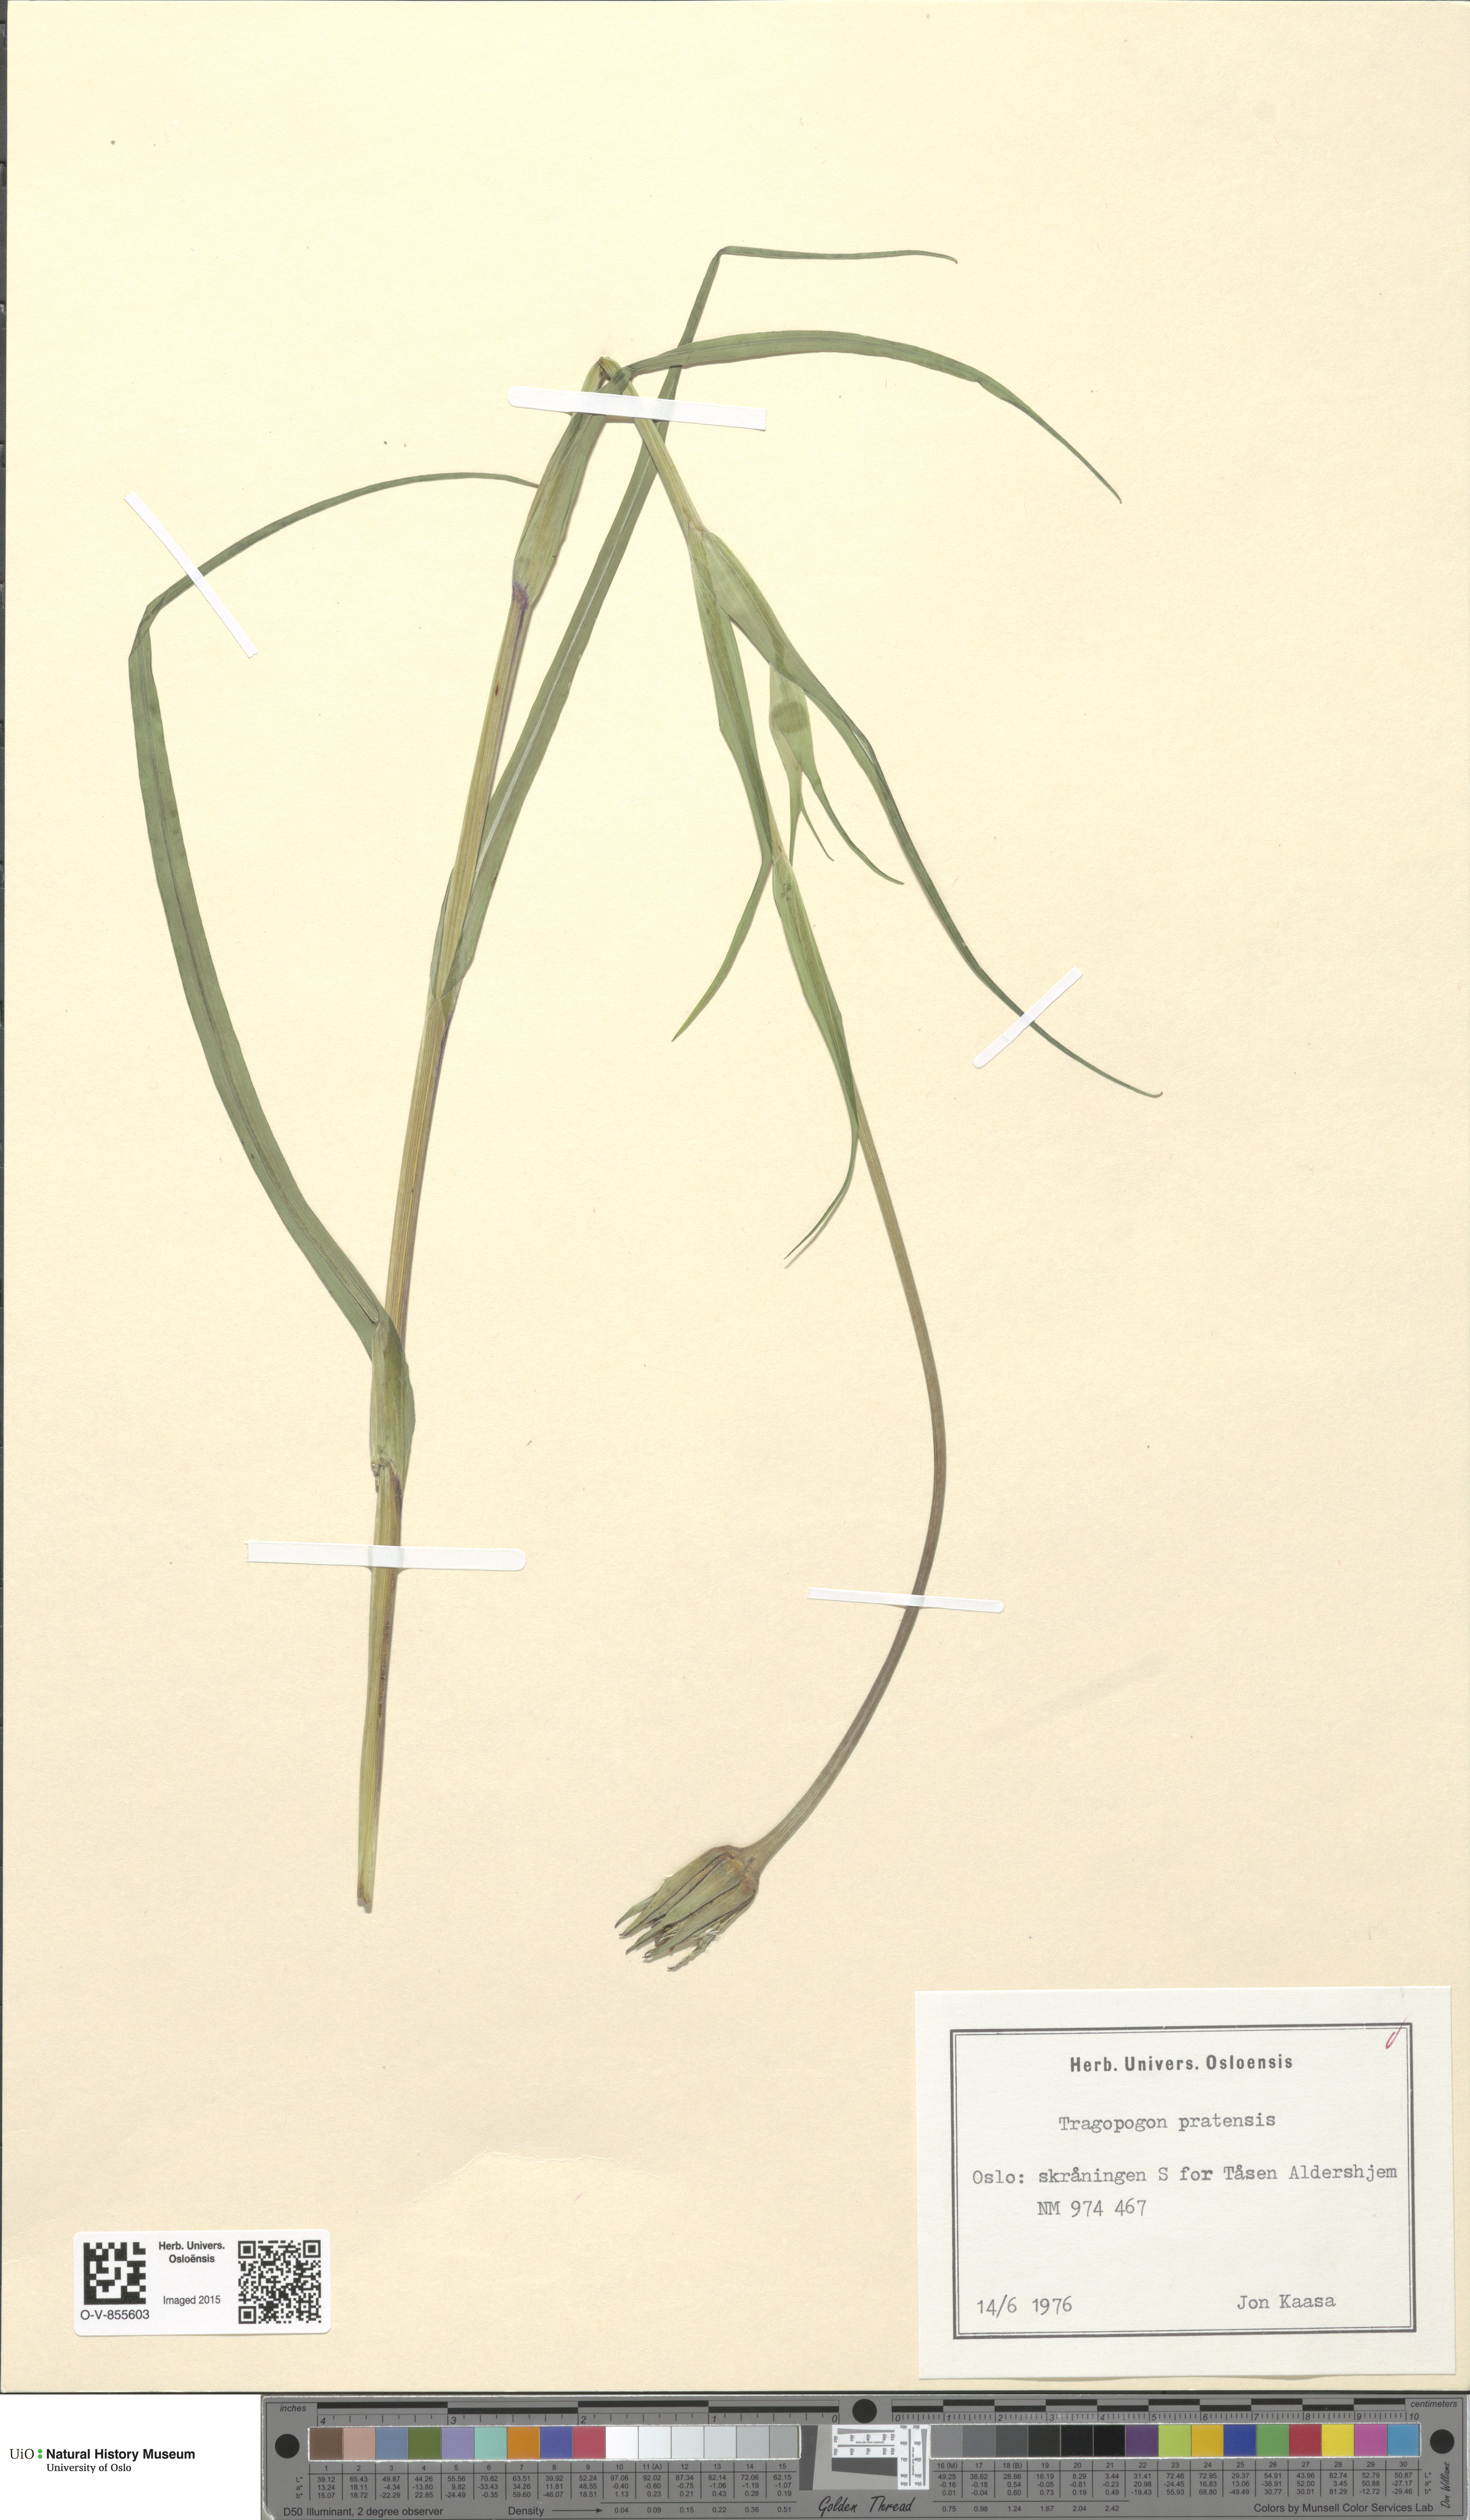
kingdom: Plantae
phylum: Tracheophyta
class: Magnoliopsida
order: Asterales
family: Asteraceae
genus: Tragopogon
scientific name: Tragopogon pratensis
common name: Goat's-beard
